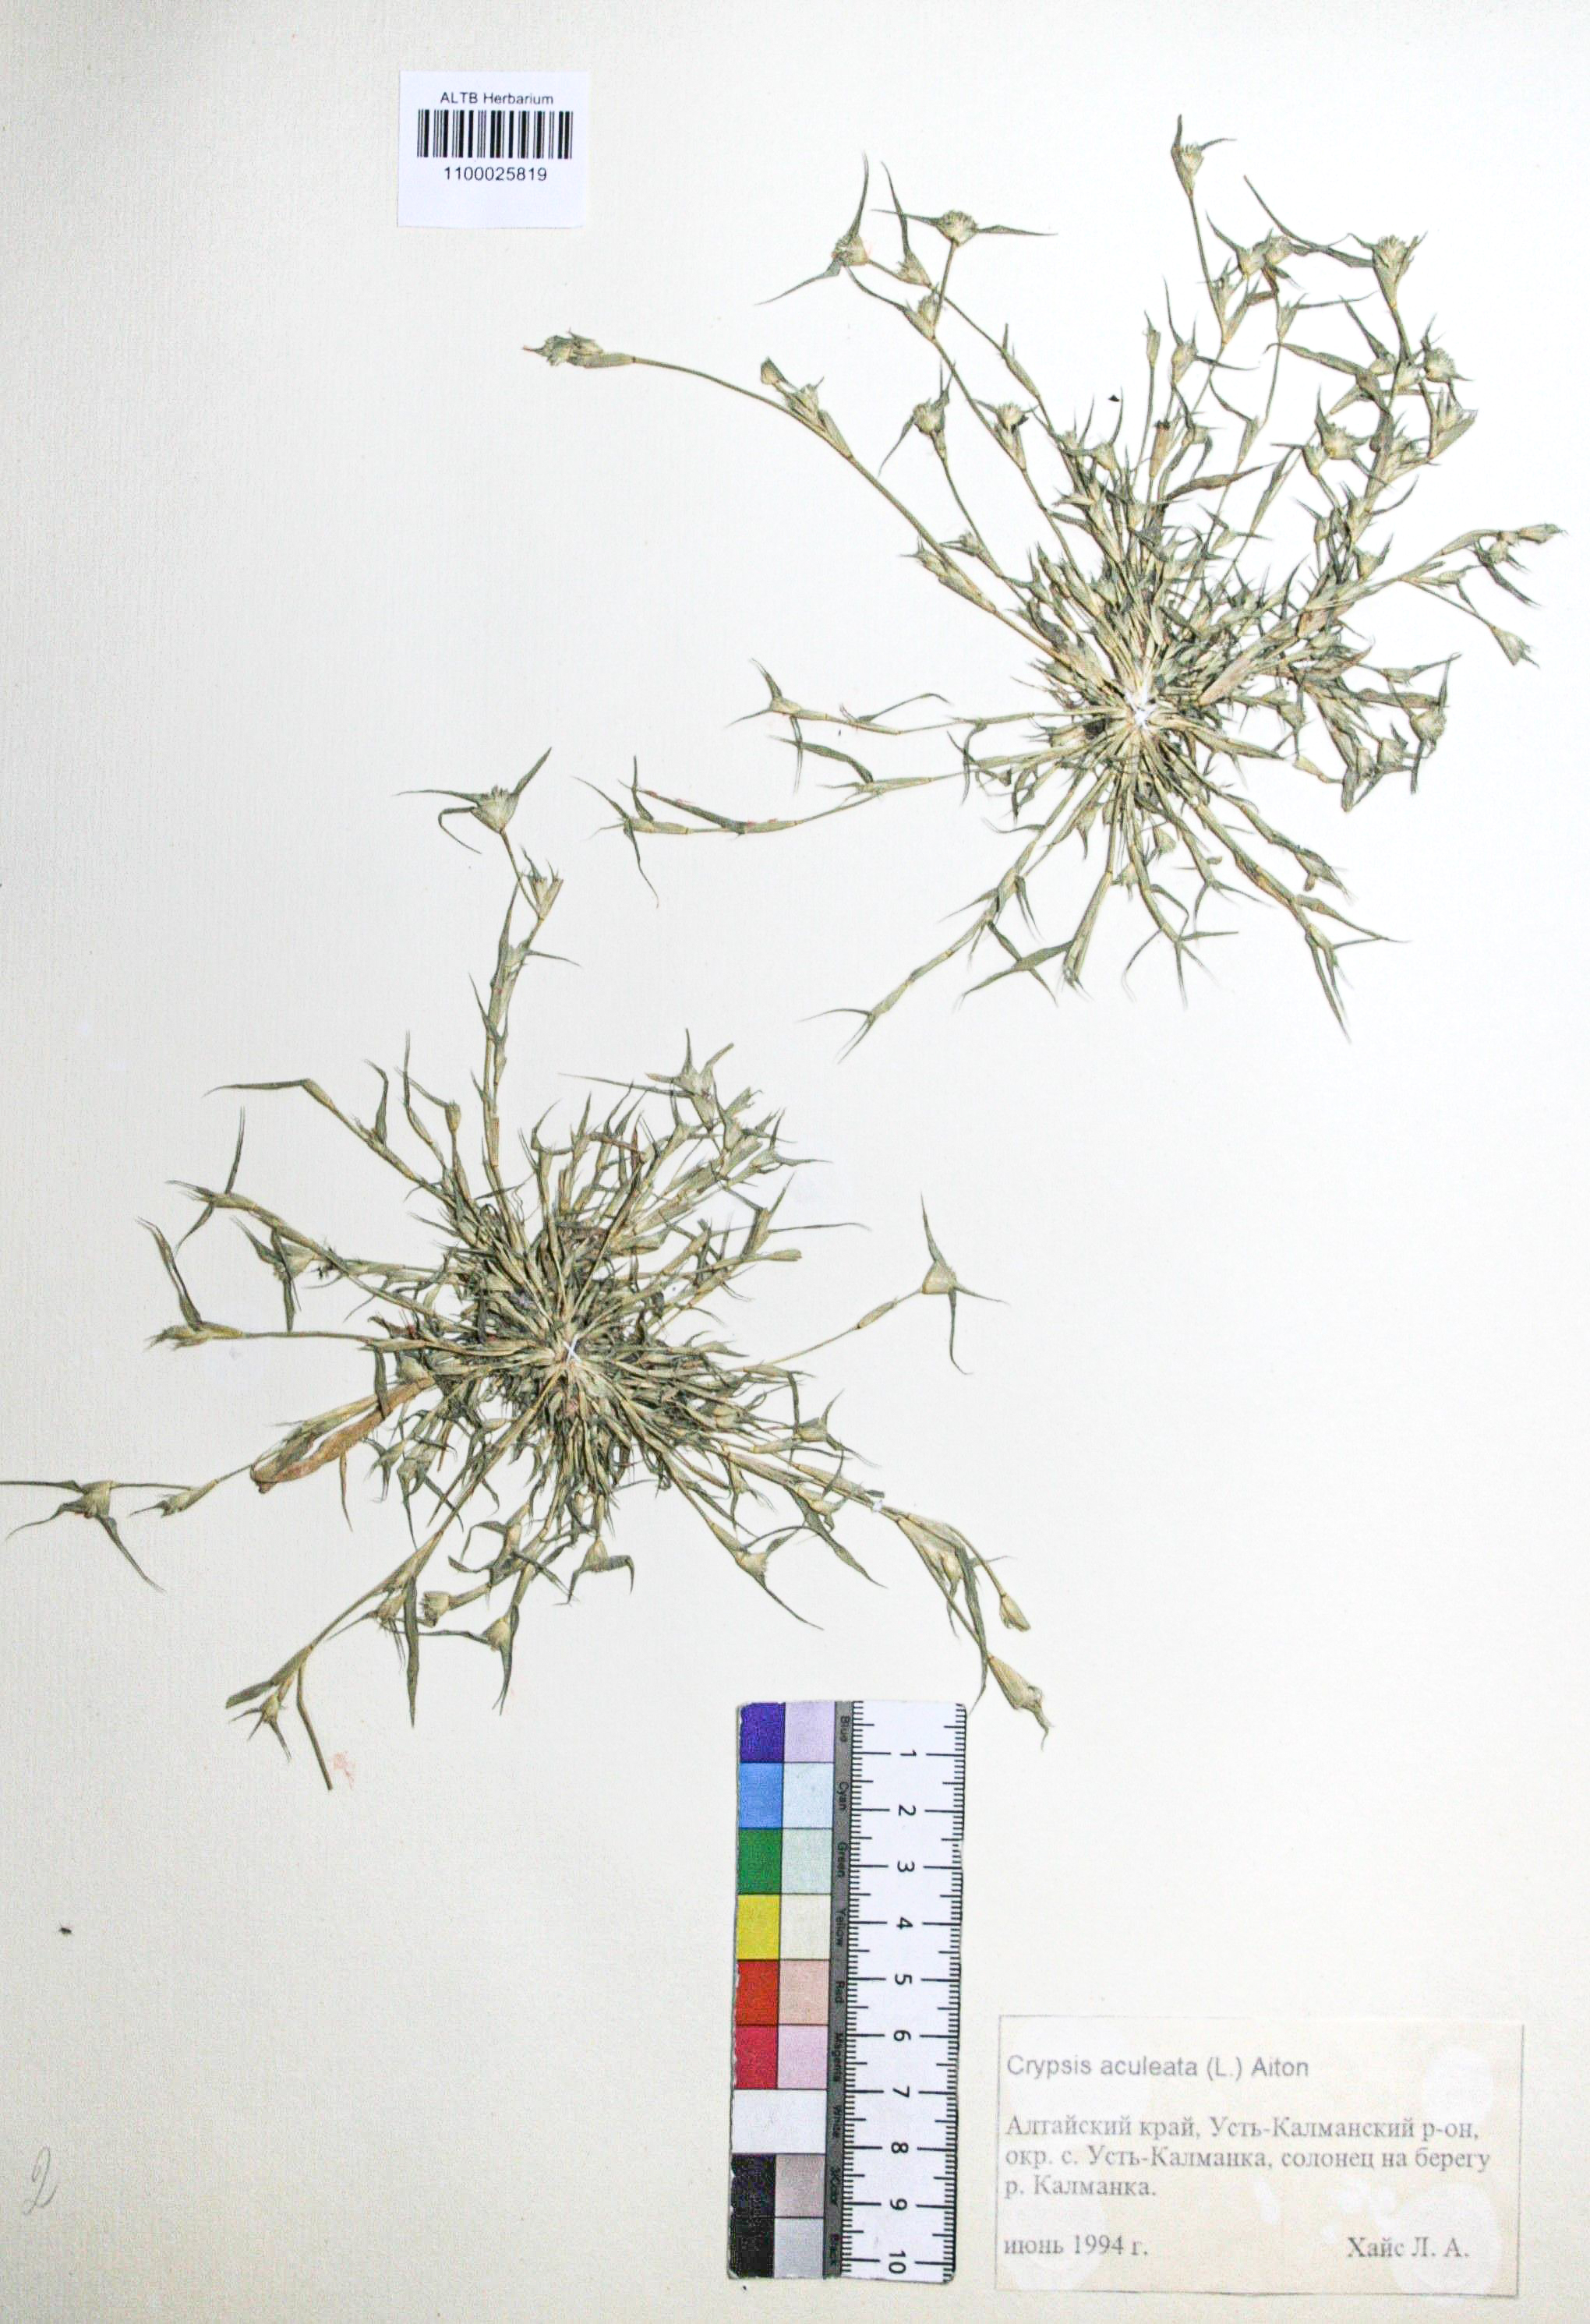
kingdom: Plantae
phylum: Tracheophyta
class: Liliopsida
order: Poales
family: Poaceae
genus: Sporobolus
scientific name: Sporobolus aculeatus
